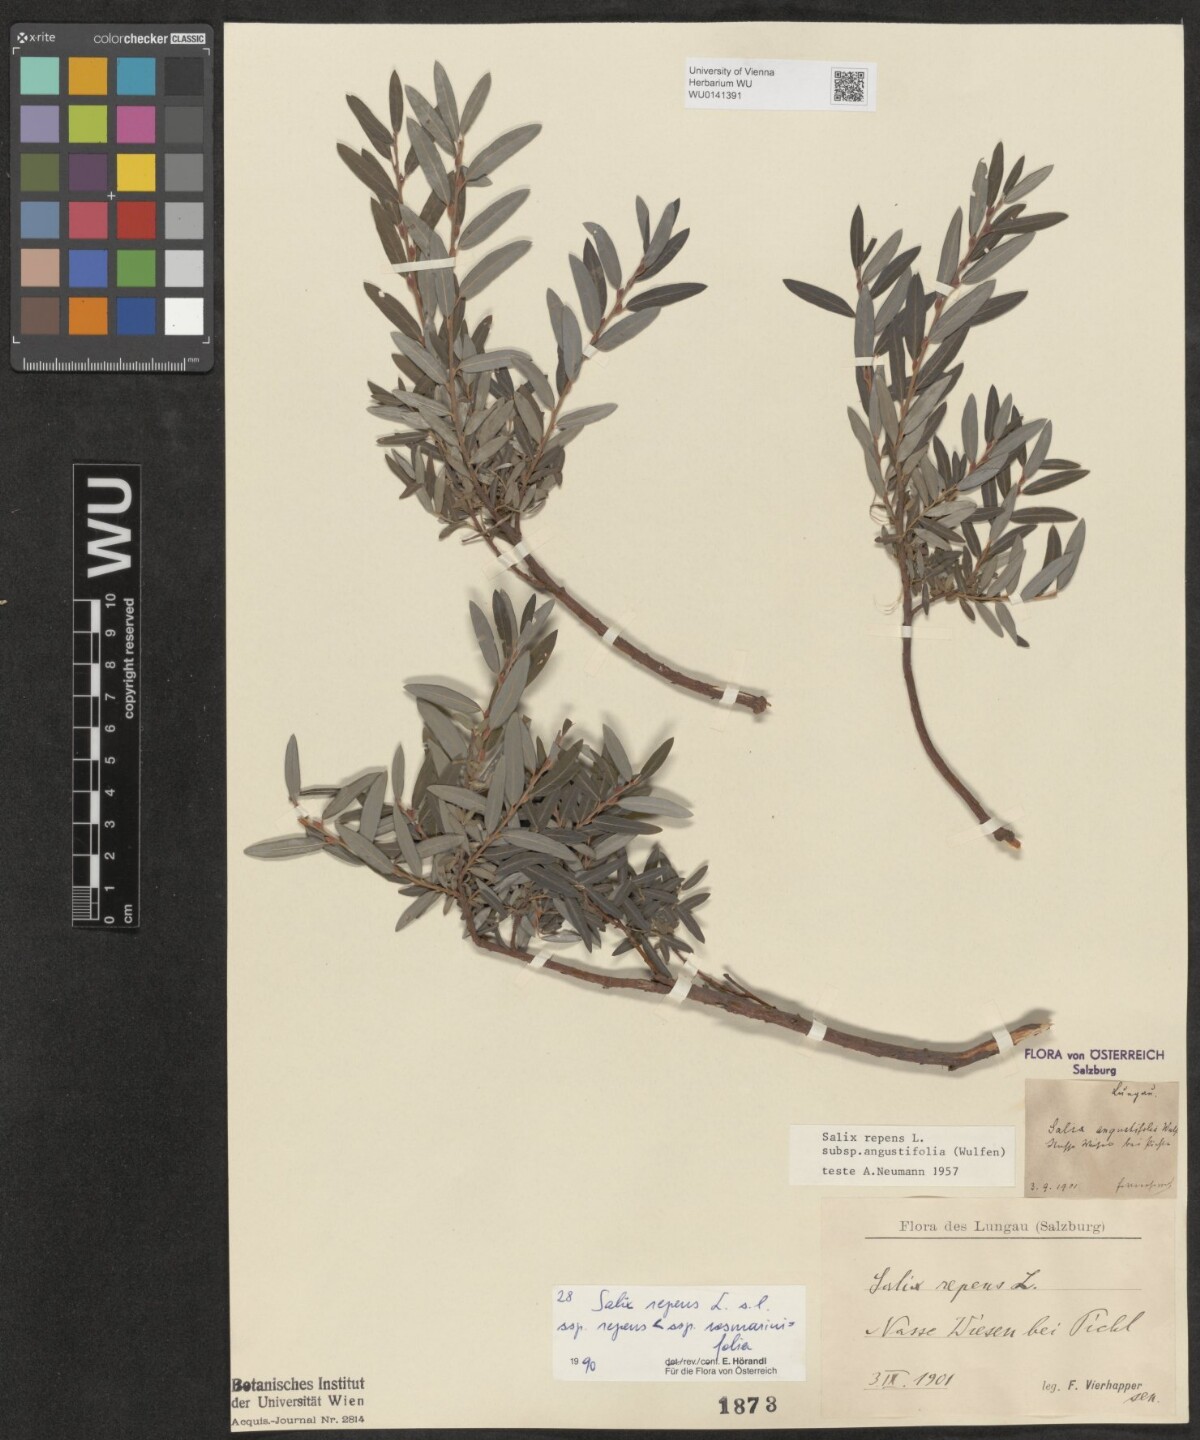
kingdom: Plantae
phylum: Tracheophyta
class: Magnoliopsida
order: Malpighiales
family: Salicaceae
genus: Salix
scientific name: Salix repens
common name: Creeping willow
